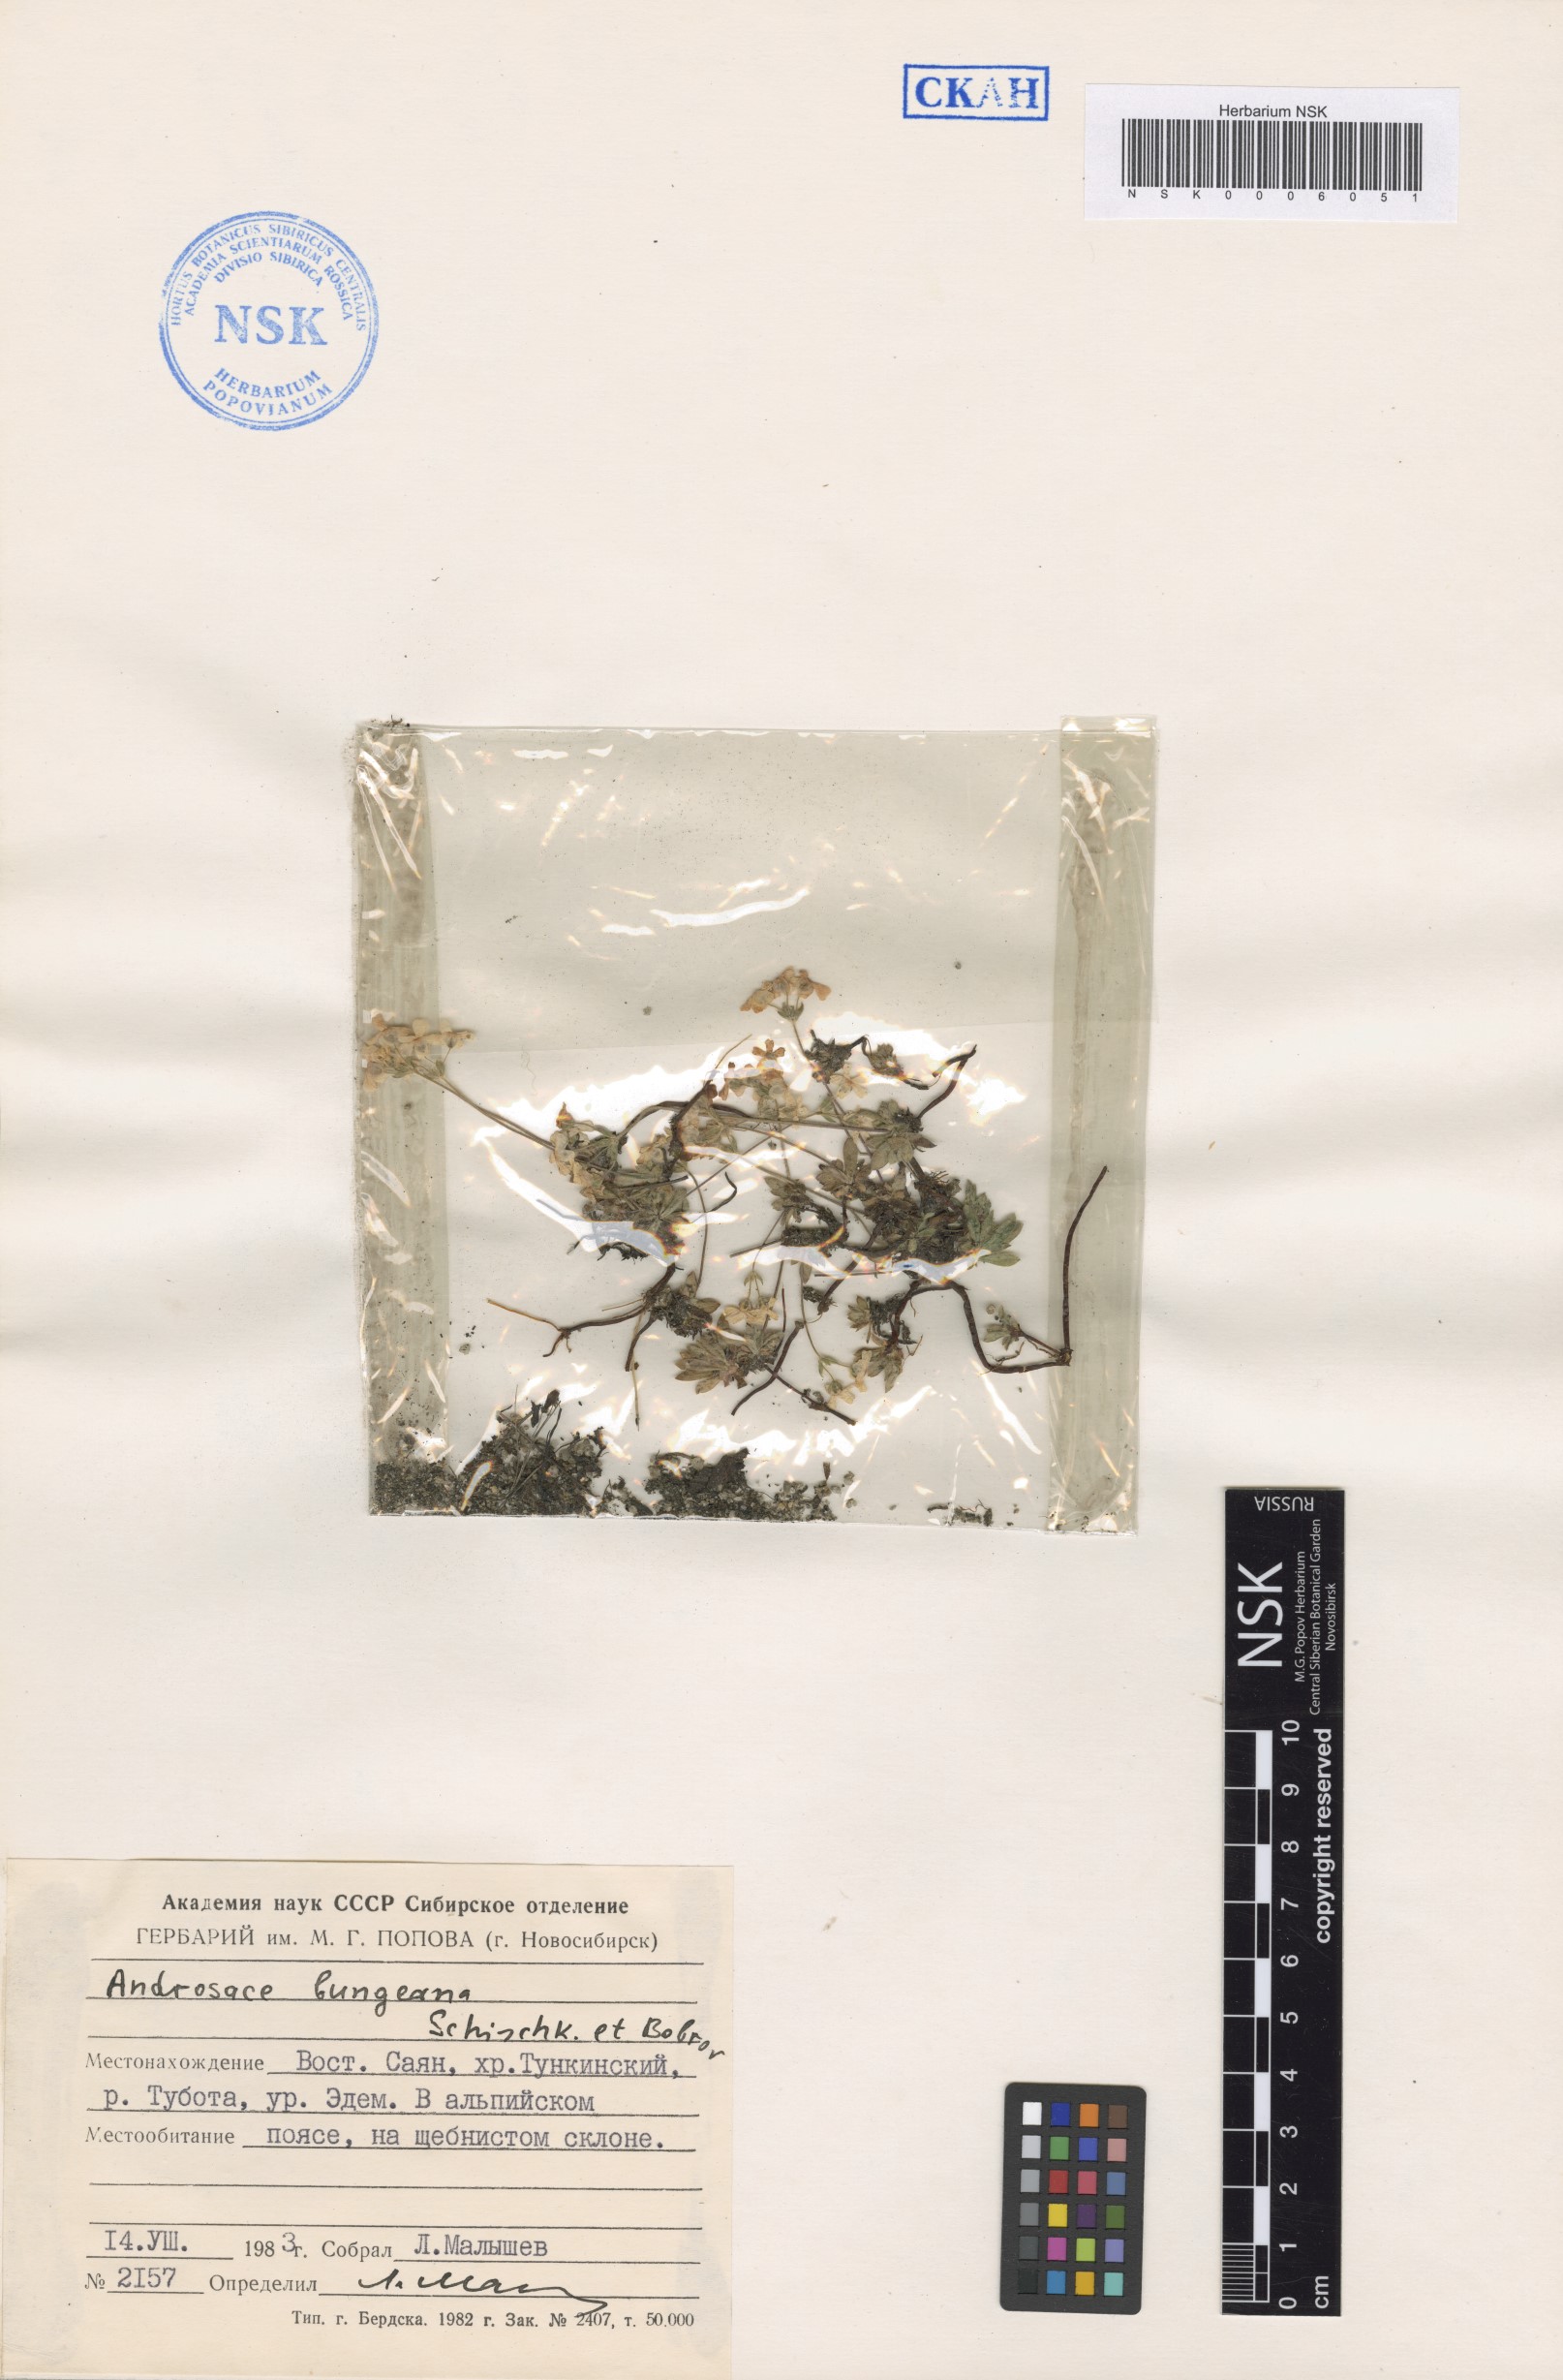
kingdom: Plantae
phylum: Tracheophyta
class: Magnoliopsida
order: Ericales
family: Primulaceae
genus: Androsace
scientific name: Androsace bungeana
